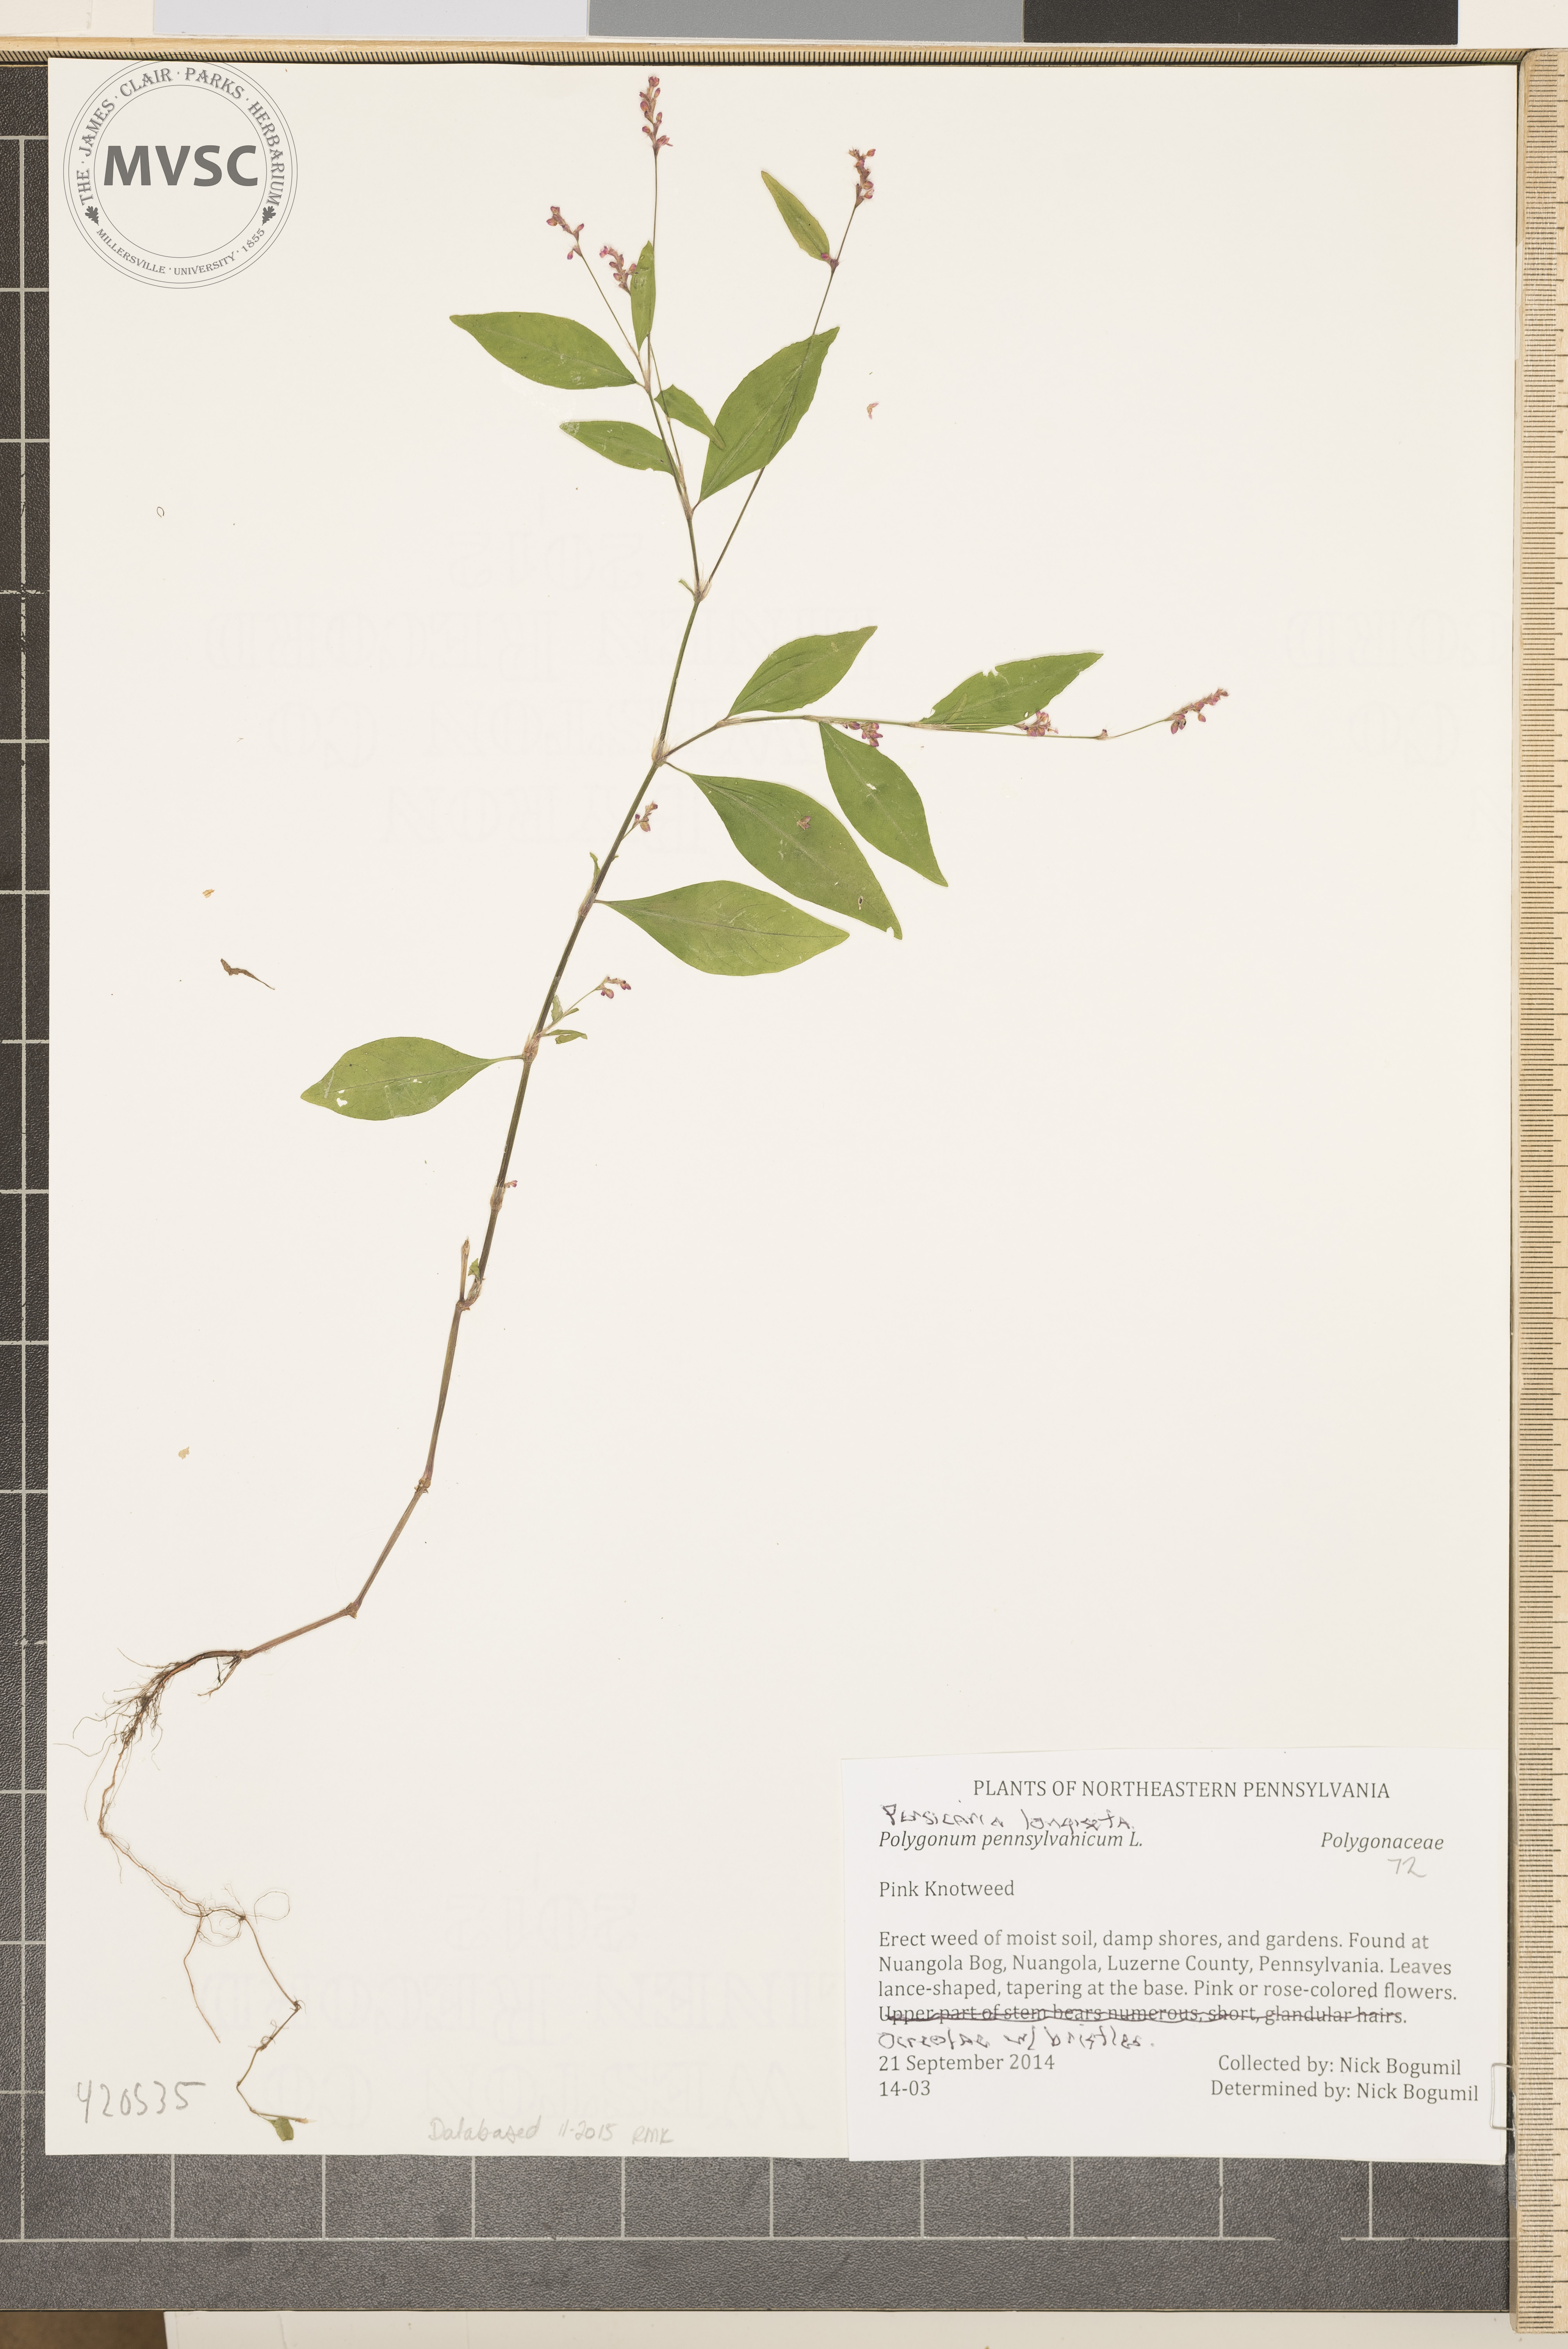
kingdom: Plantae
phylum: Tracheophyta
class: Magnoliopsida
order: Caryophyllales
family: Polygonaceae
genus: Persicaria
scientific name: Persicaria longiseta
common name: Pink Knotweed
